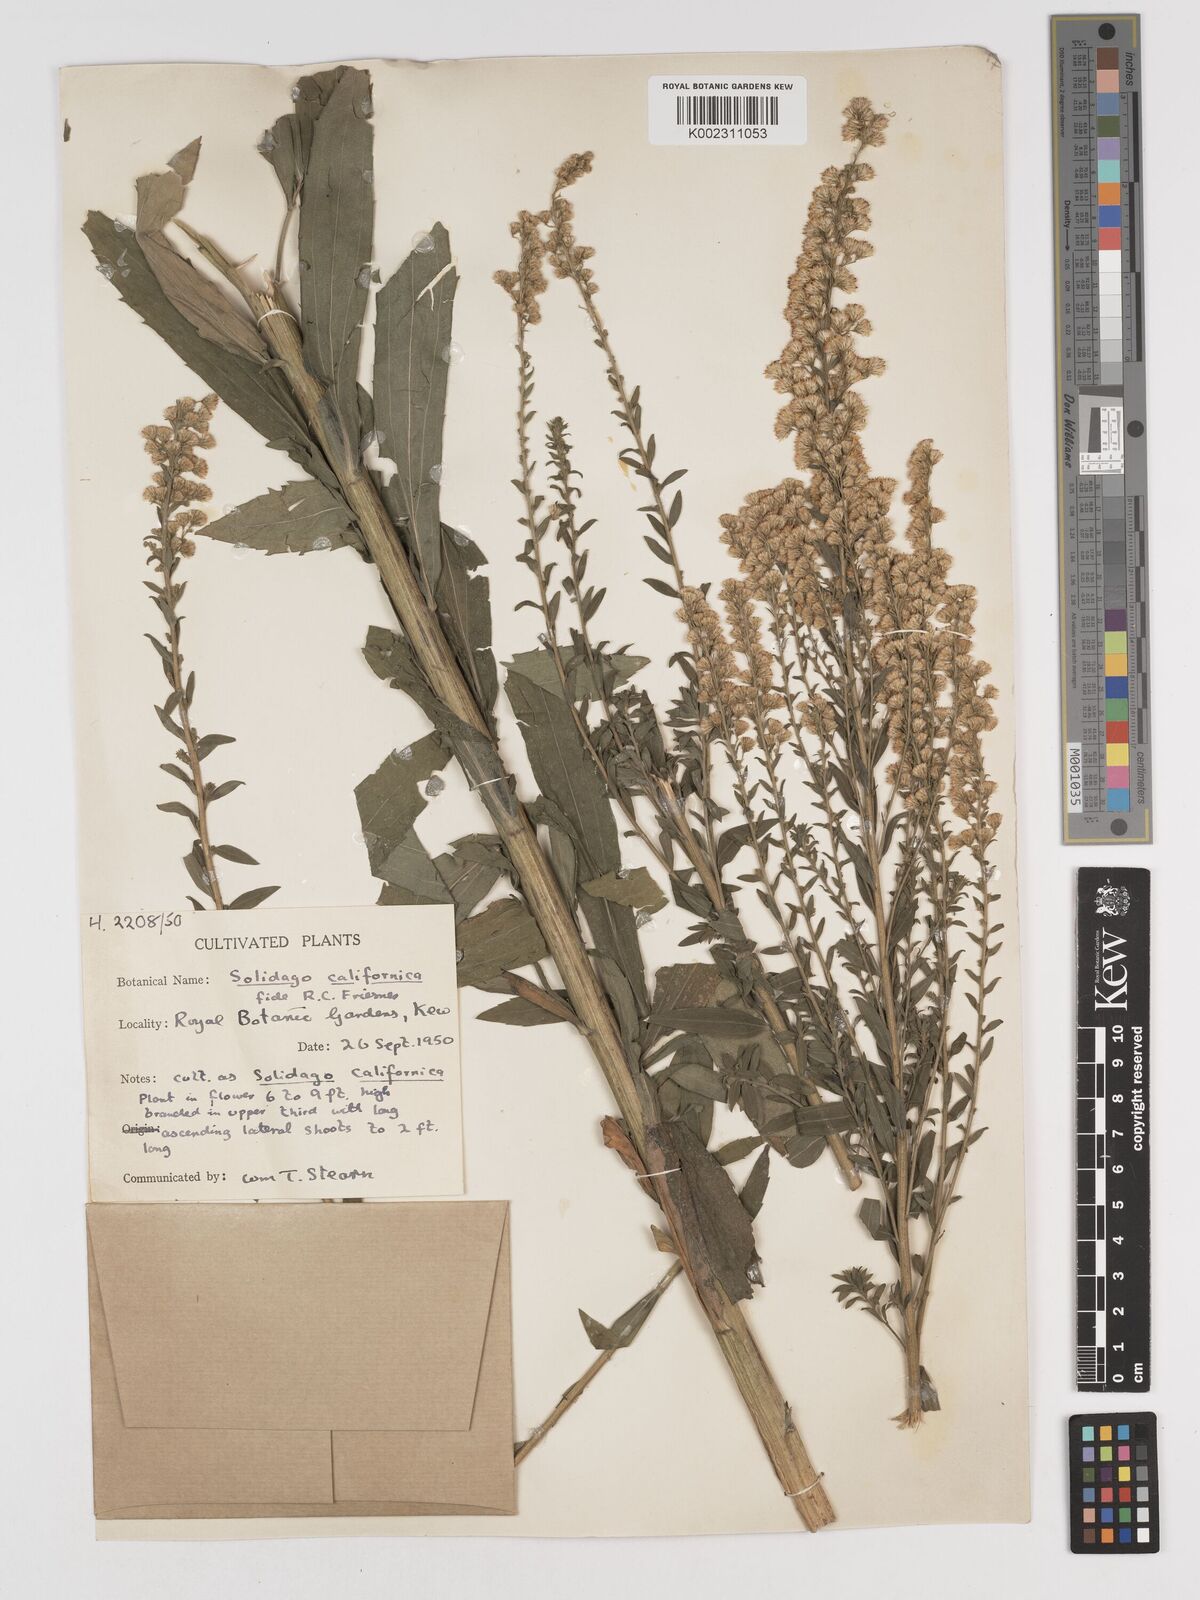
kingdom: Plantae
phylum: Tracheophyta
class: Magnoliopsida
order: Asterales
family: Asteraceae
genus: Solidago
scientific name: Solidago
